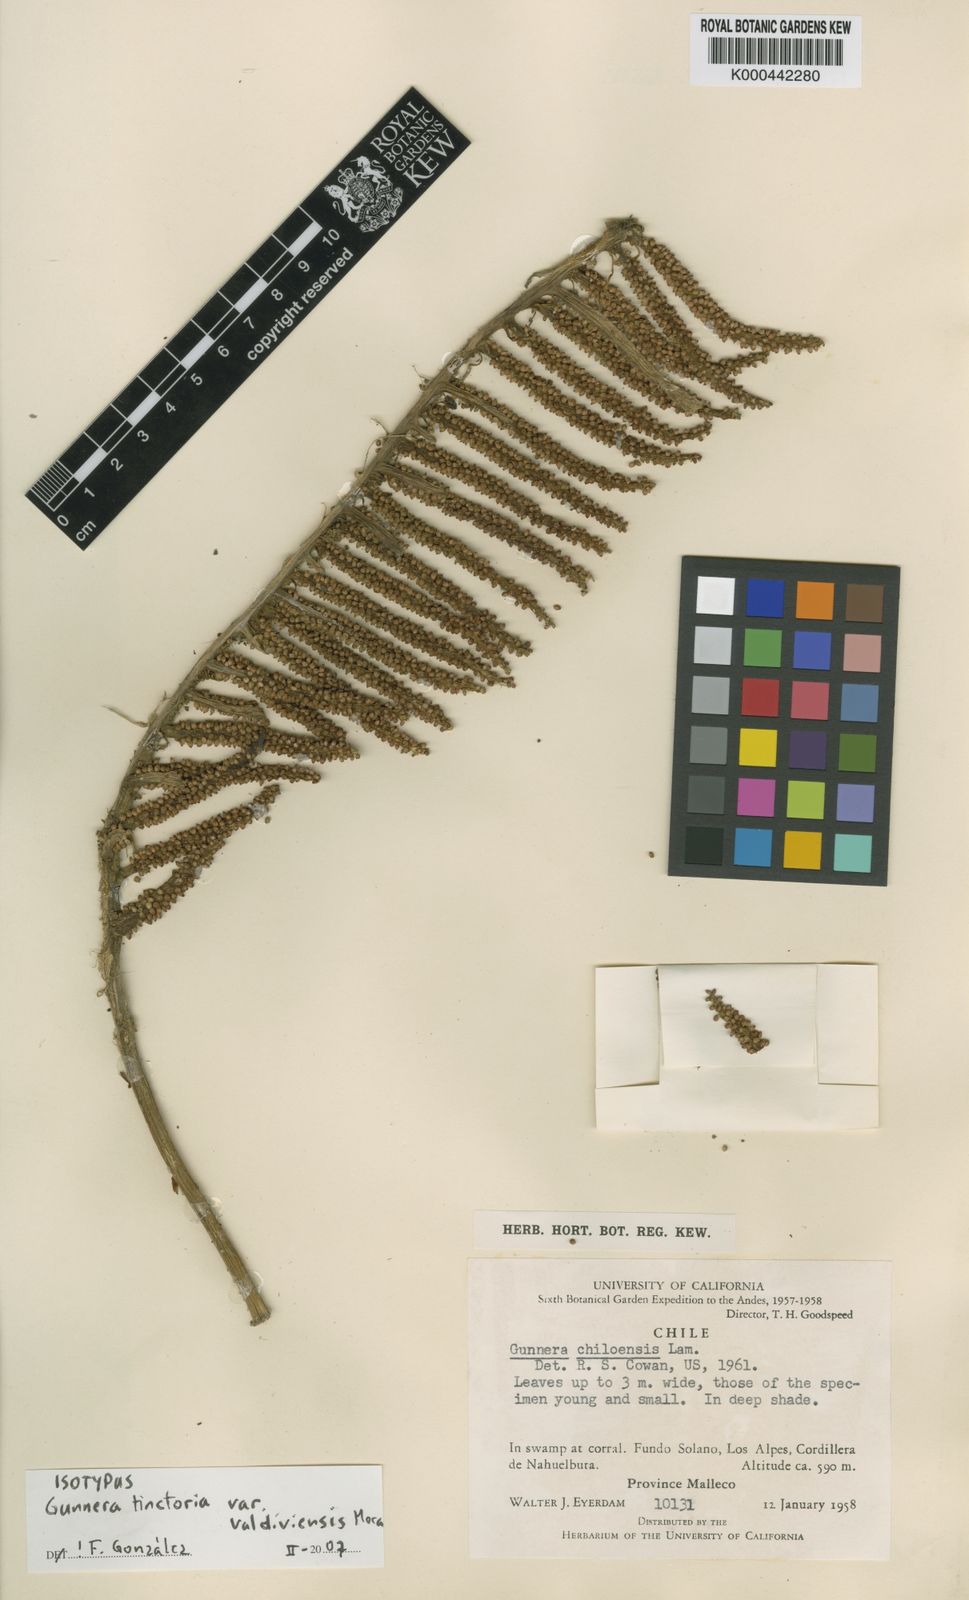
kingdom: Plantae
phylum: Tracheophyta
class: Magnoliopsida
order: Gunnerales
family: Gunneraceae
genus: Gunnera
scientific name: Gunnera tinctoria
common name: Giant-rhubarb
